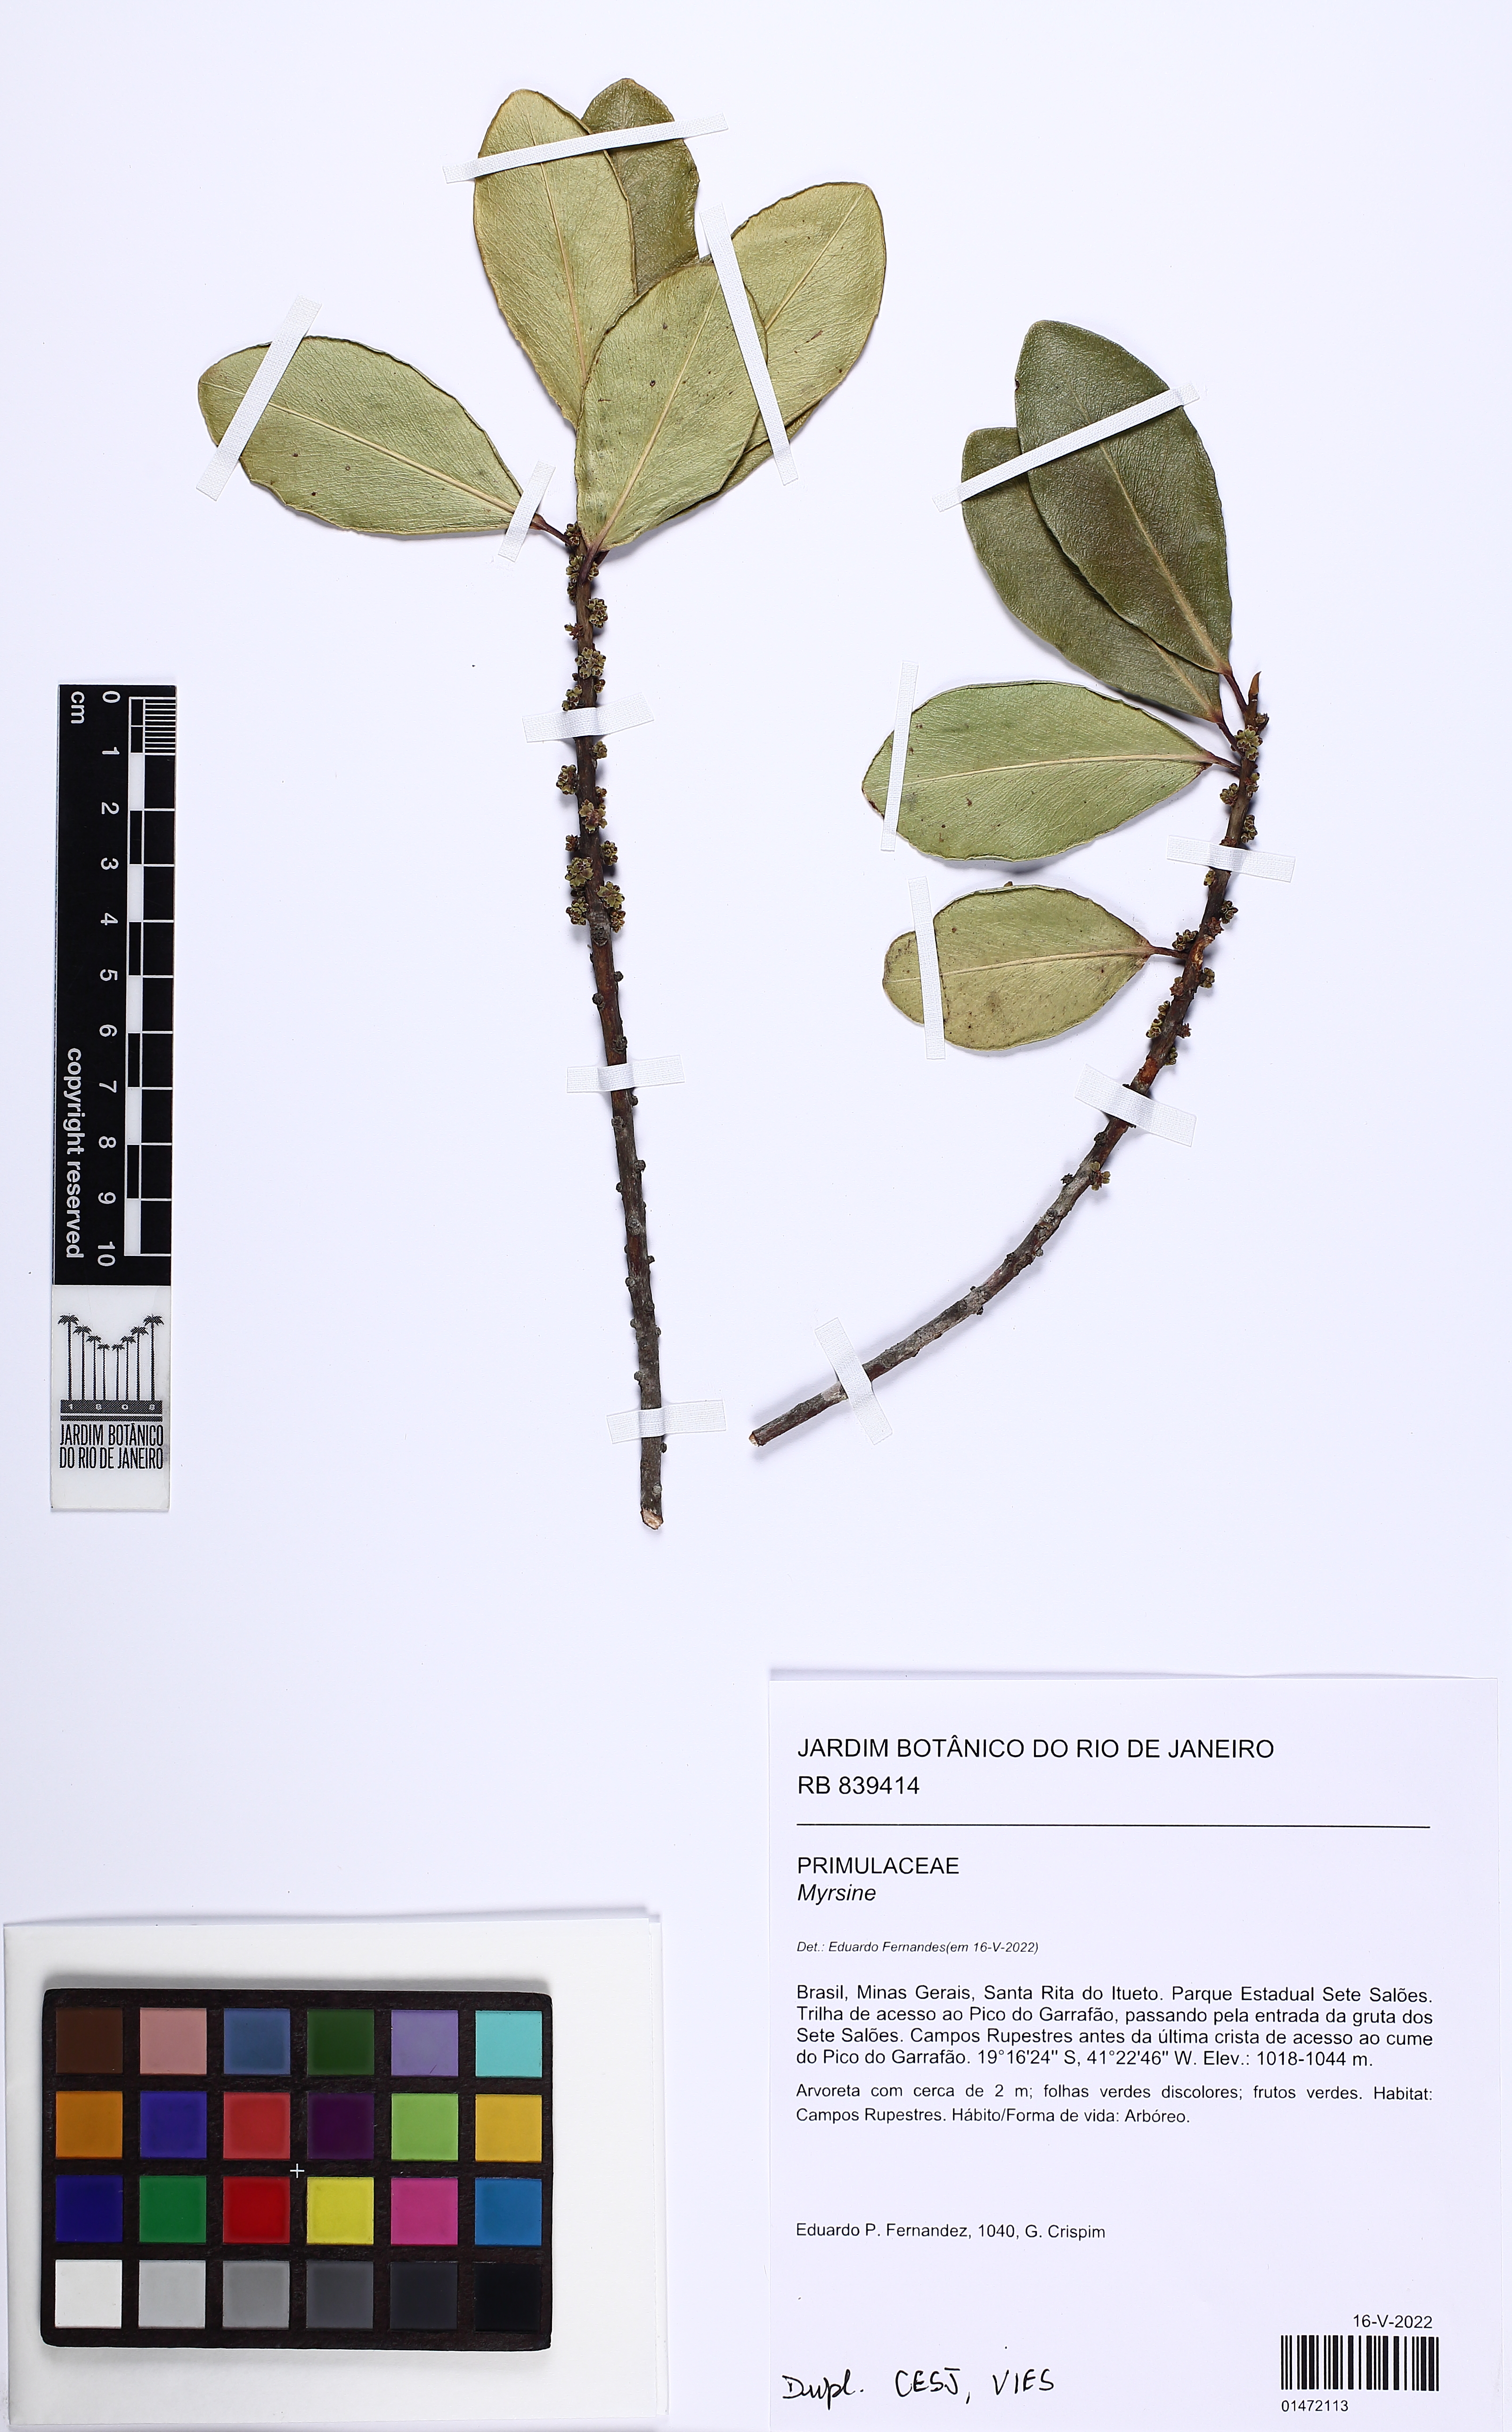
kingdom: Plantae
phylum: Tracheophyta
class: Magnoliopsida
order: Ericales
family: Primulaceae
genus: Myrsine
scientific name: Myrsine
